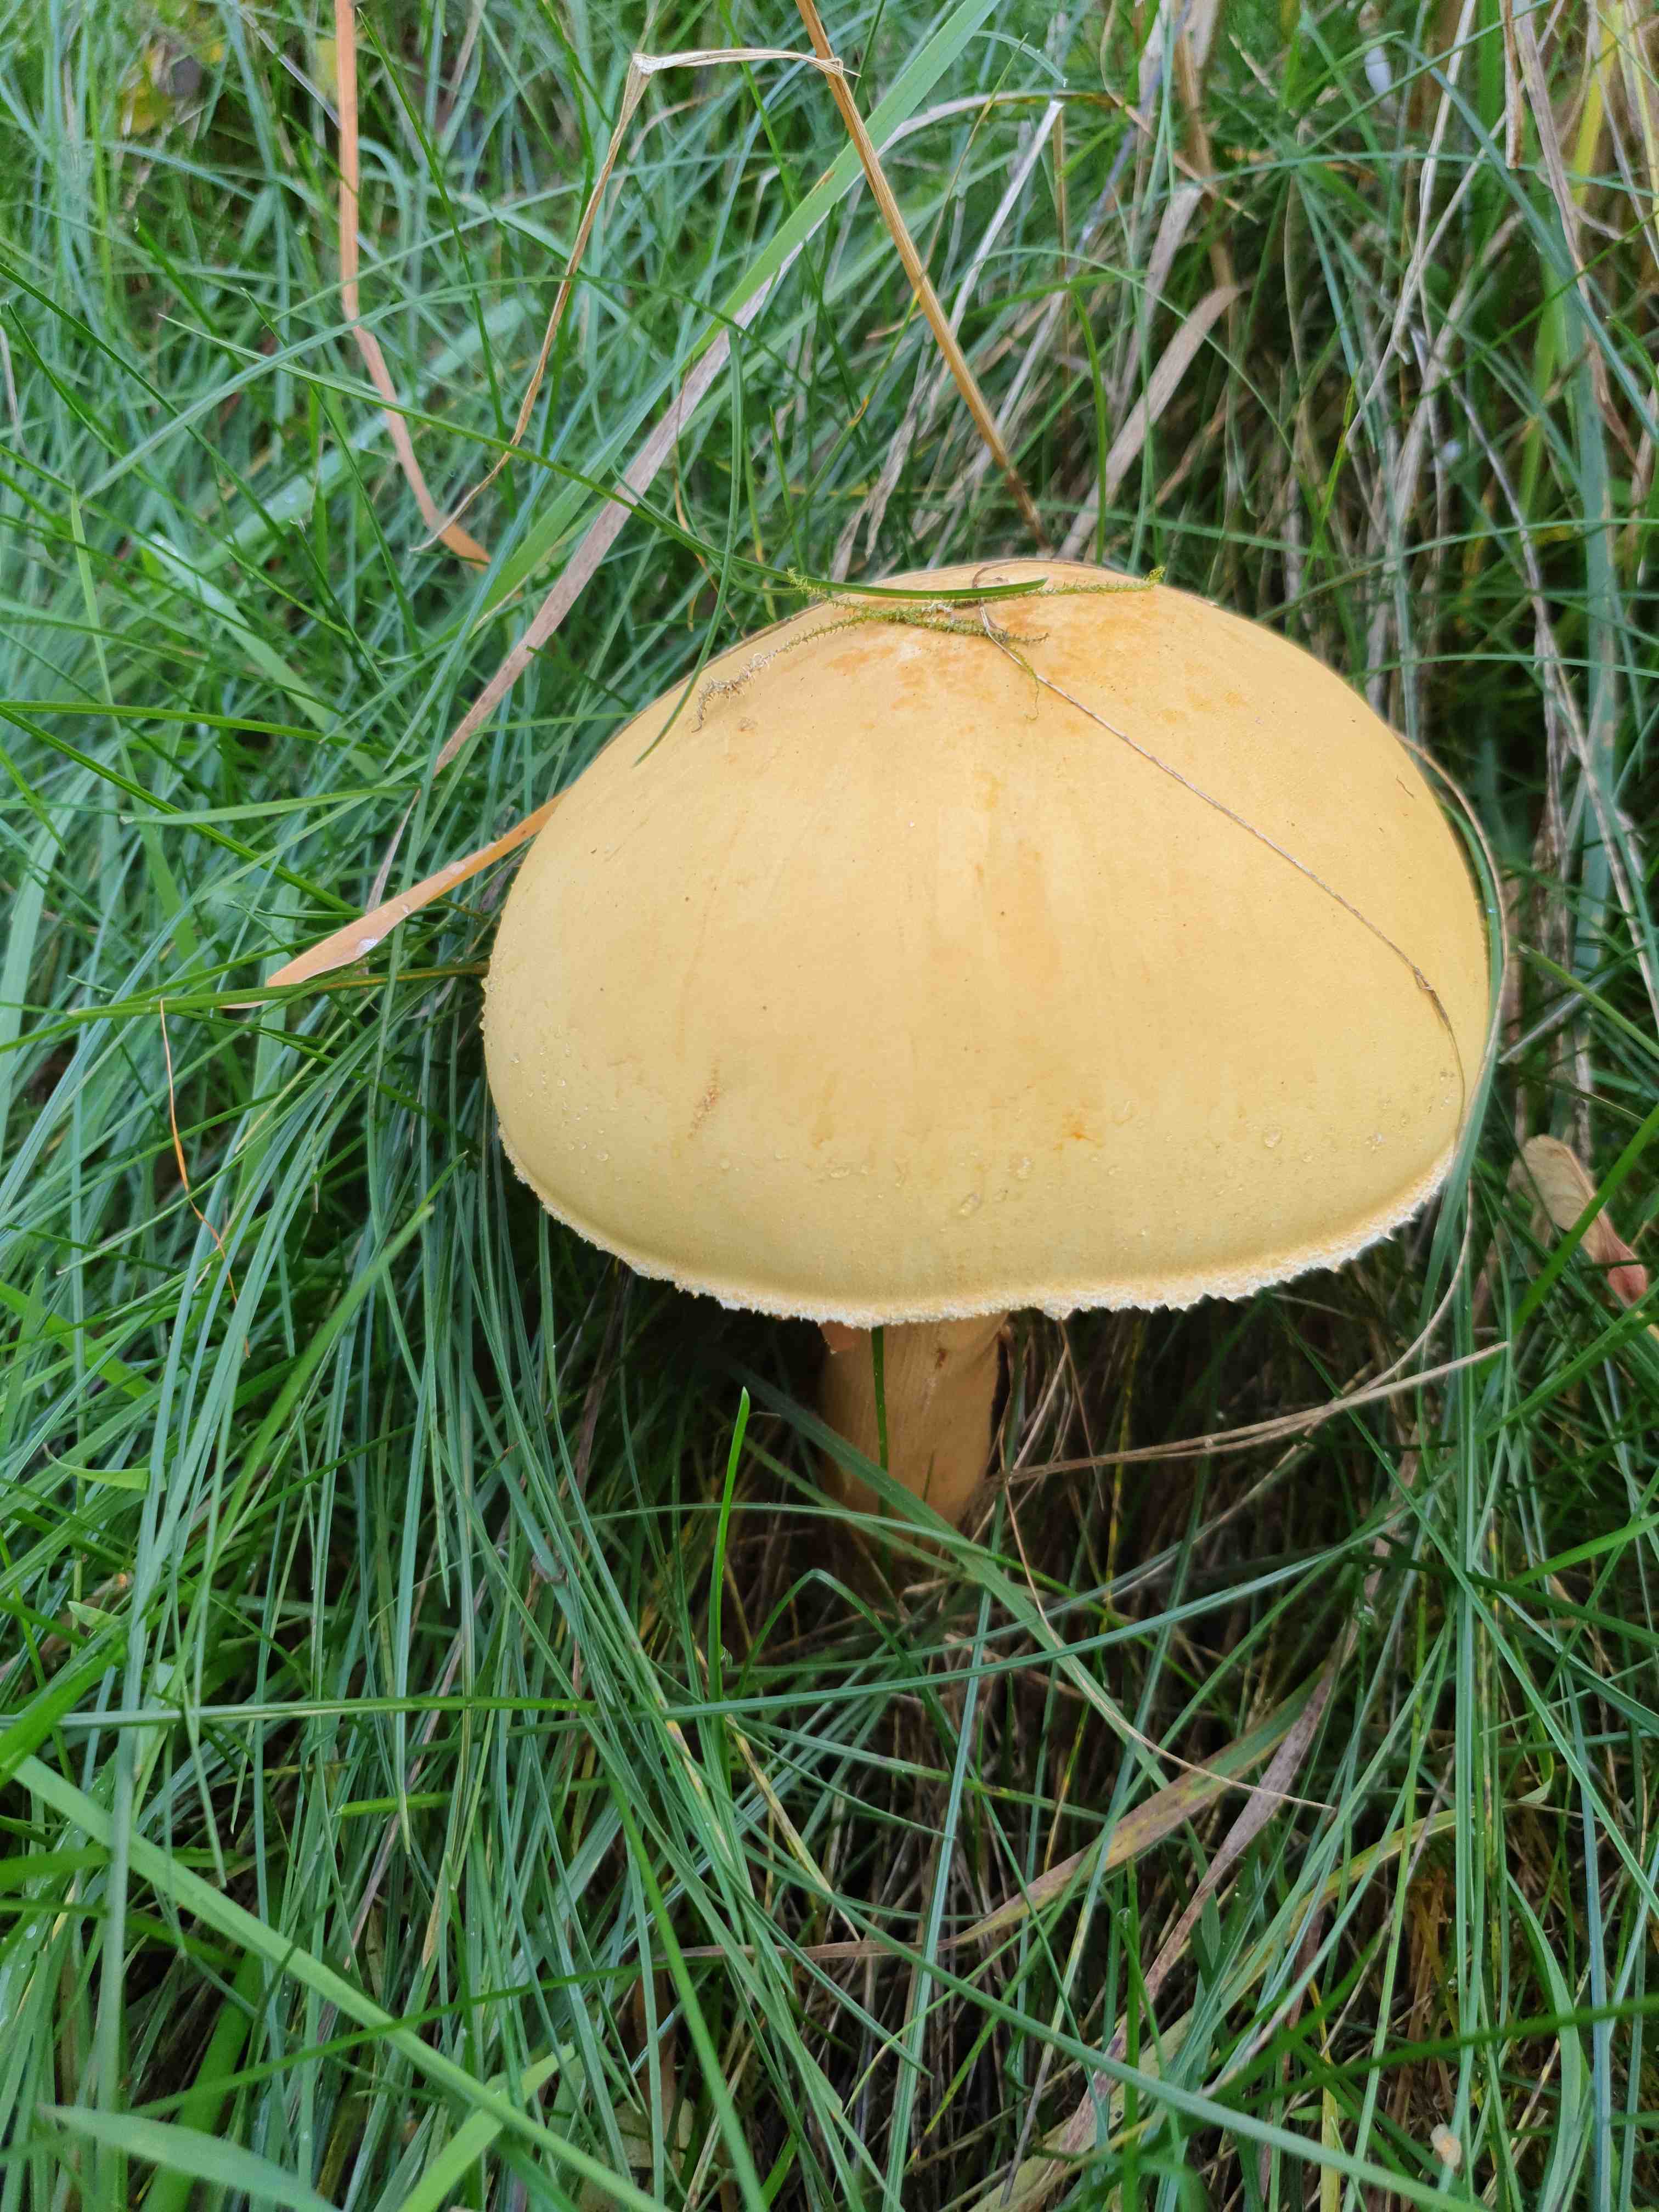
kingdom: Fungi
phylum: Basidiomycota
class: Agaricomycetes
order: Agaricales
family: Tricholomataceae
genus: Phaeolepiota
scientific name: Phaeolepiota aurea
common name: gyldenhat
